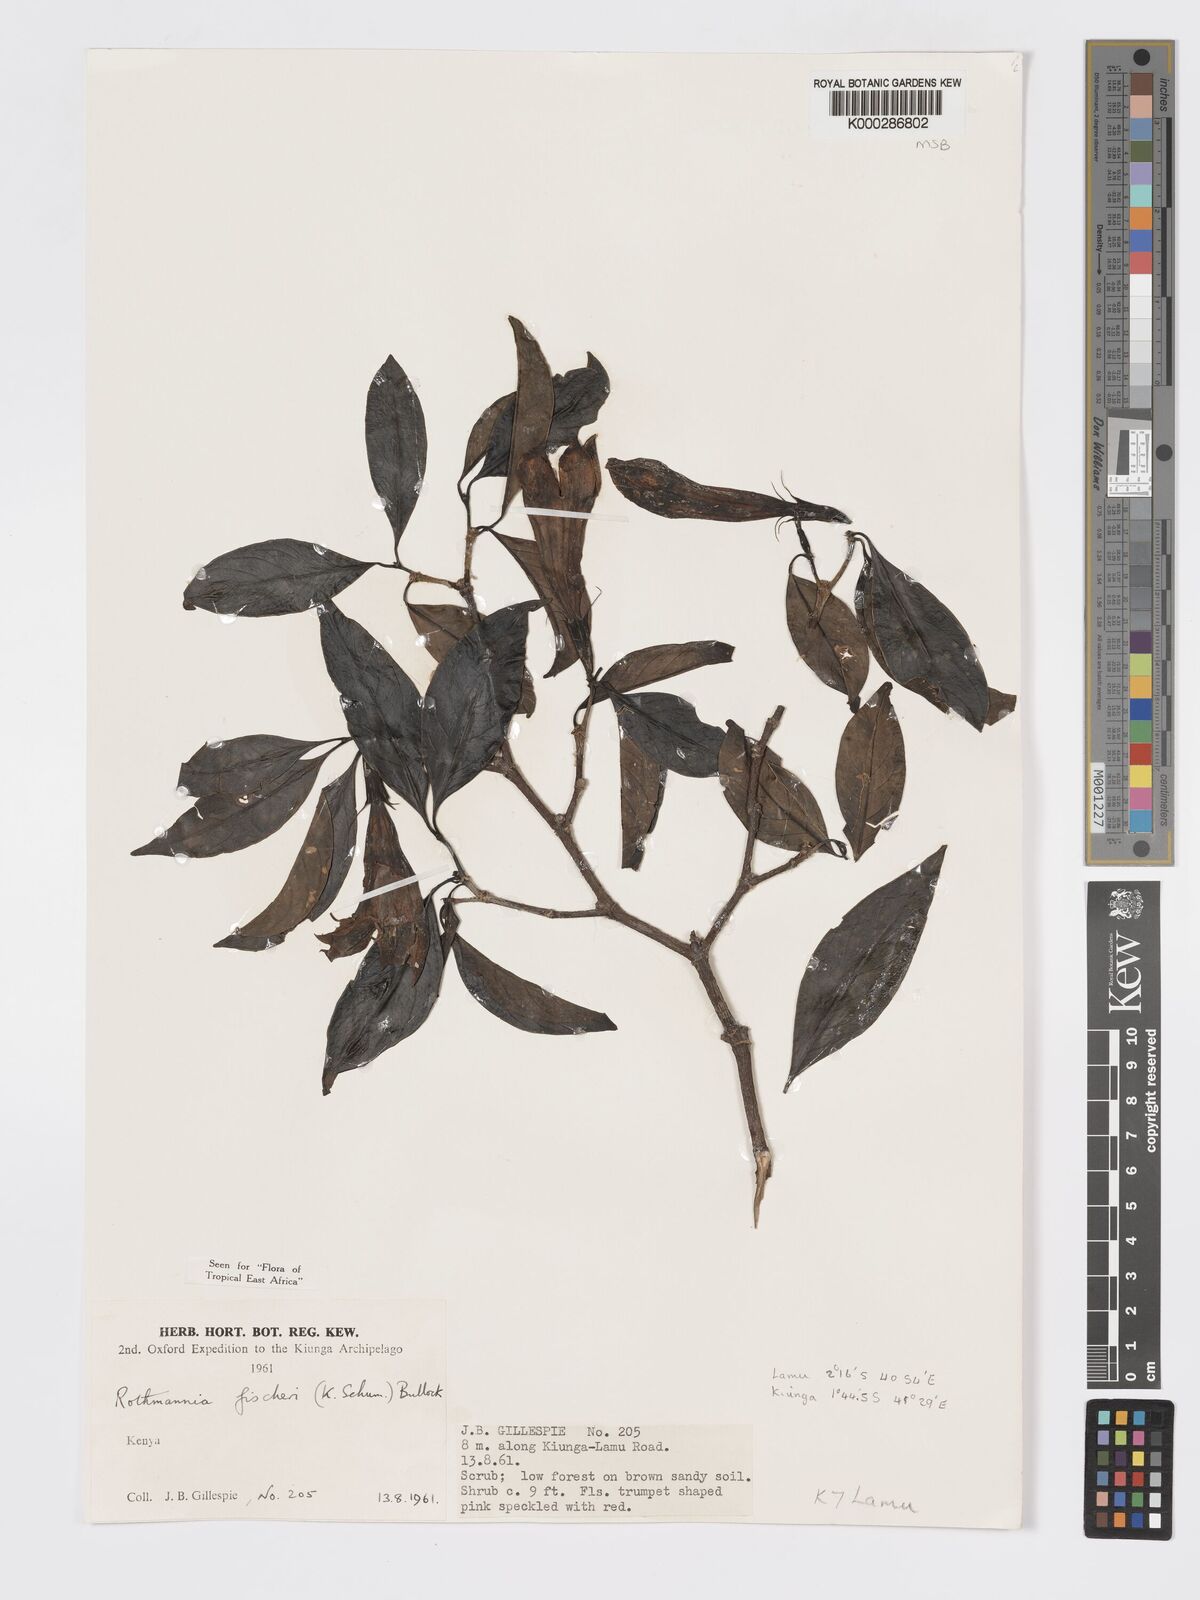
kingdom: Plantae
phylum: Tracheophyta
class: Magnoliopsida
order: Gentianales
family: Rubiaceae
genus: Rothmannia
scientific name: Rothmannia ravae
